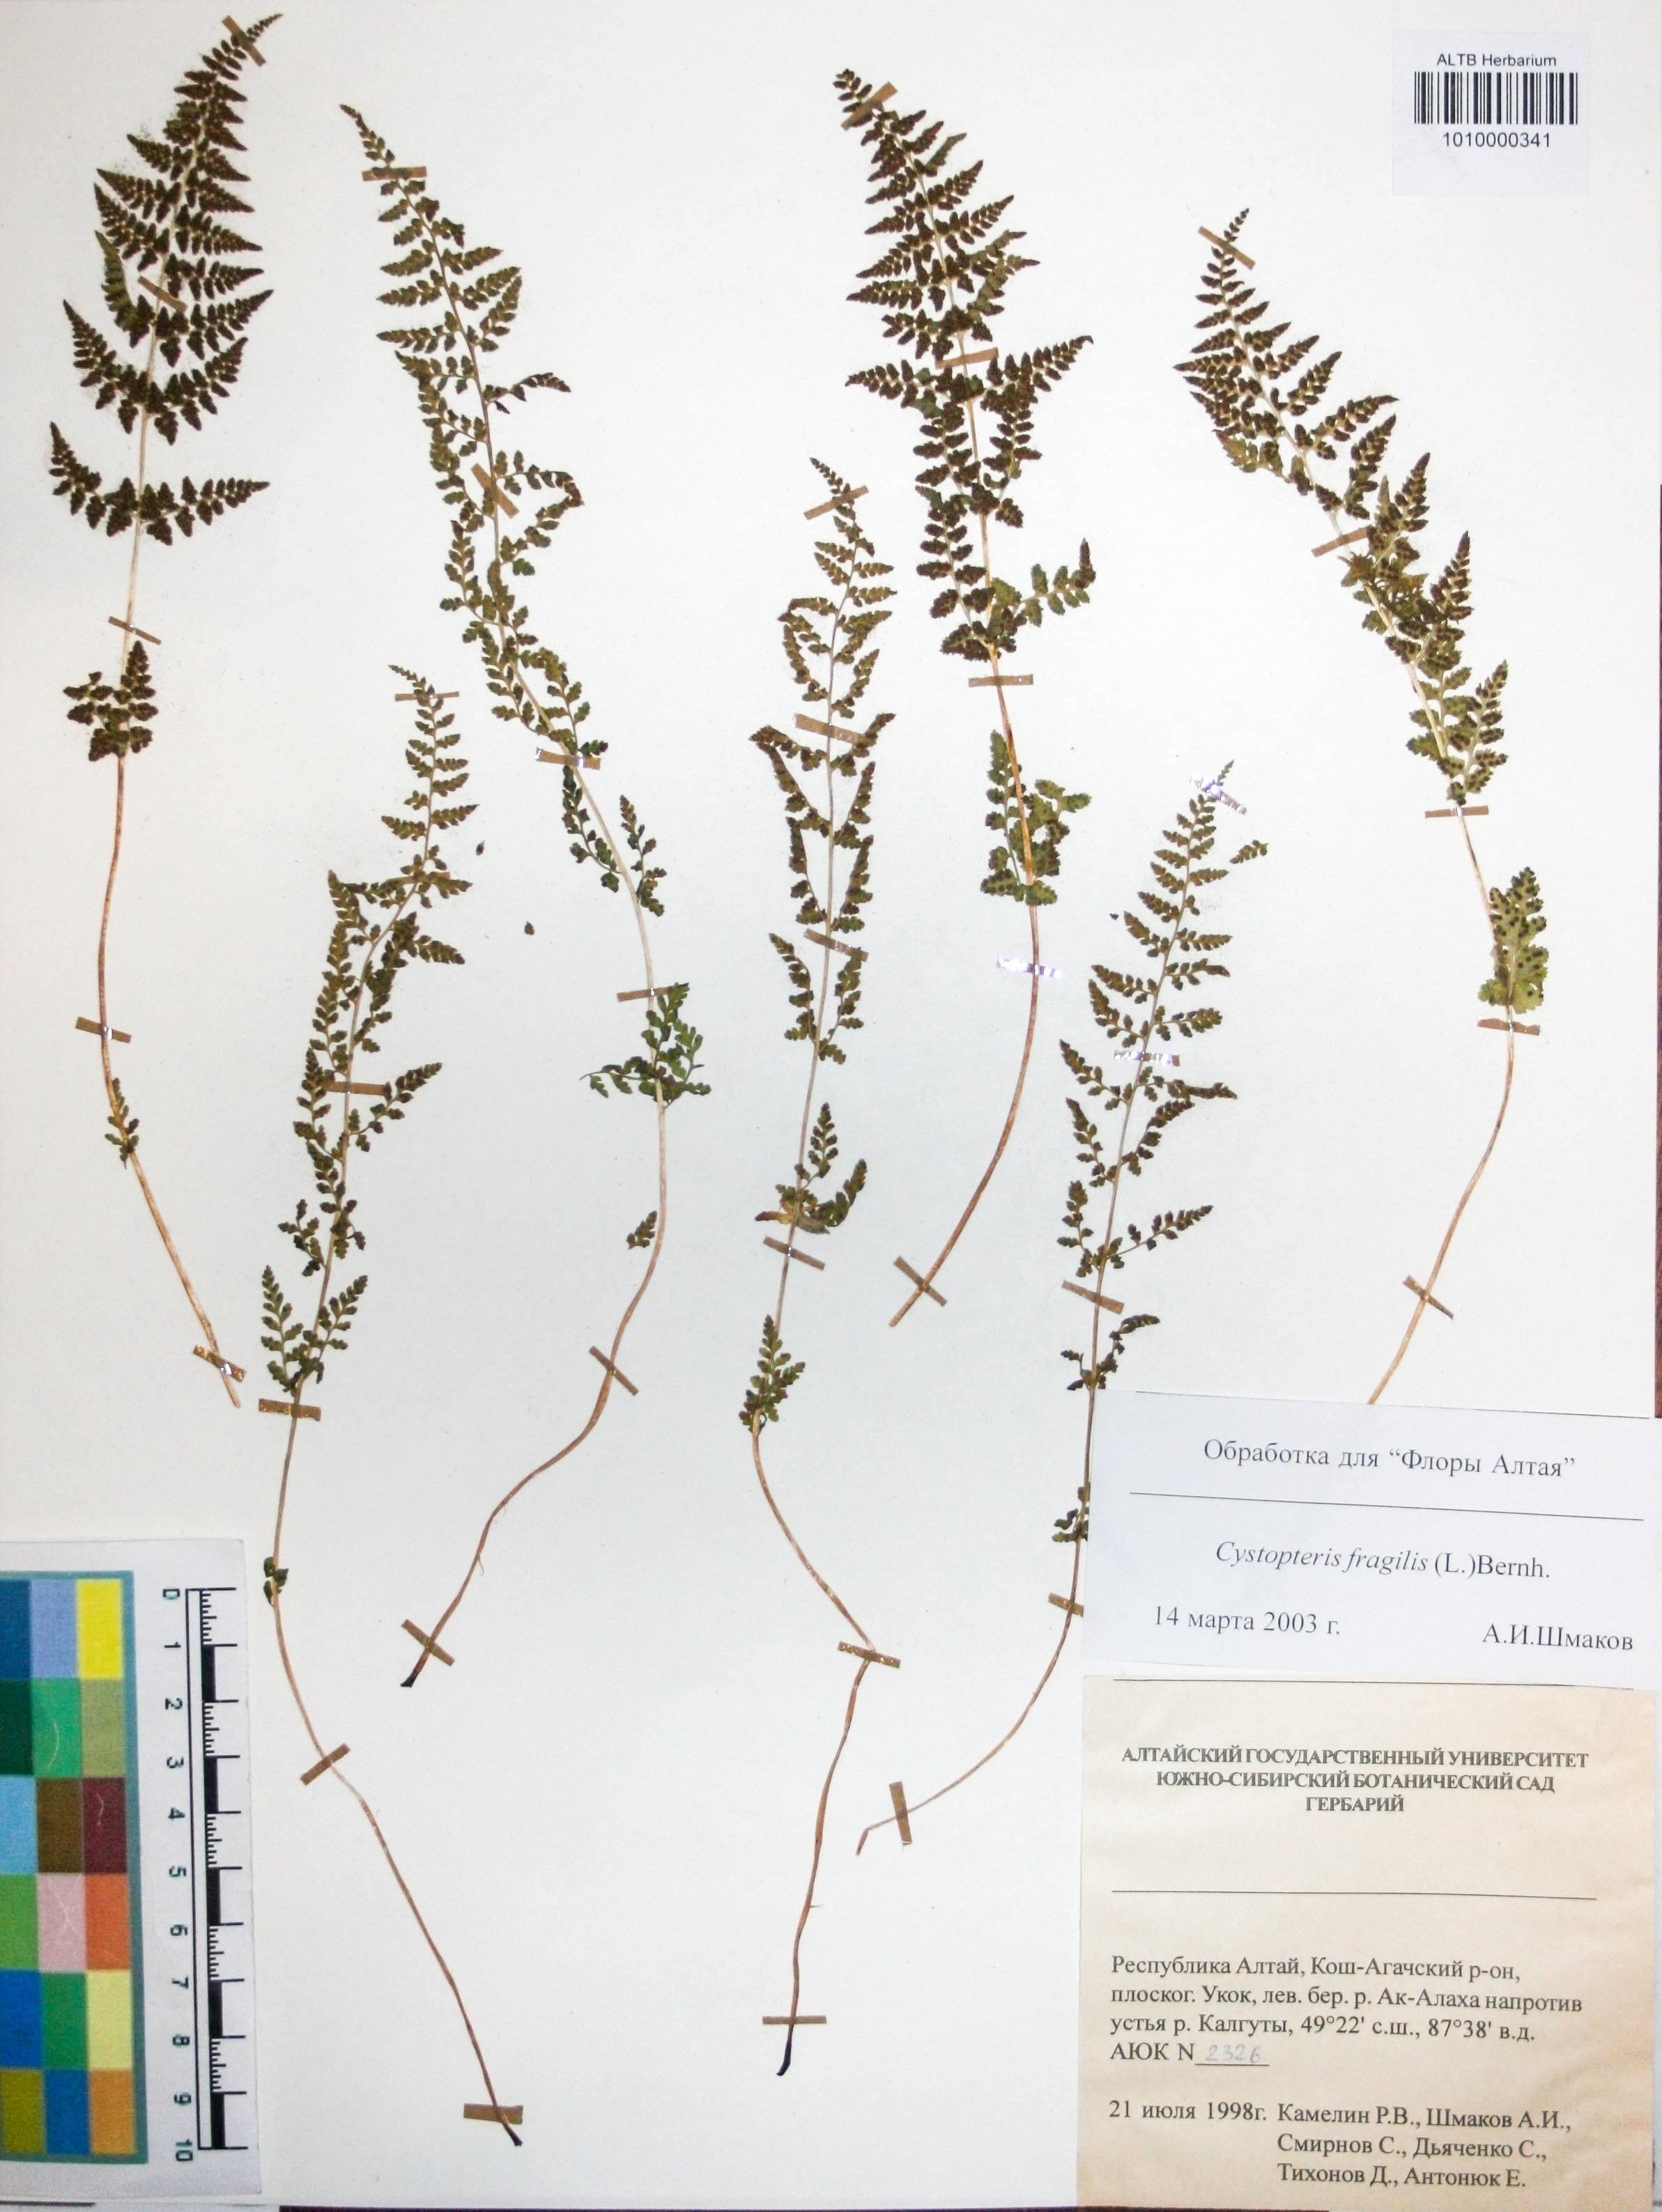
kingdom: Plantae
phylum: Tracheophyta
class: Polypodiopsida
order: Polypodiales
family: Cystopteridaceae
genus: Cystopteris
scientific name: Cystopteris fragilis
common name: Brittle bladder fern
